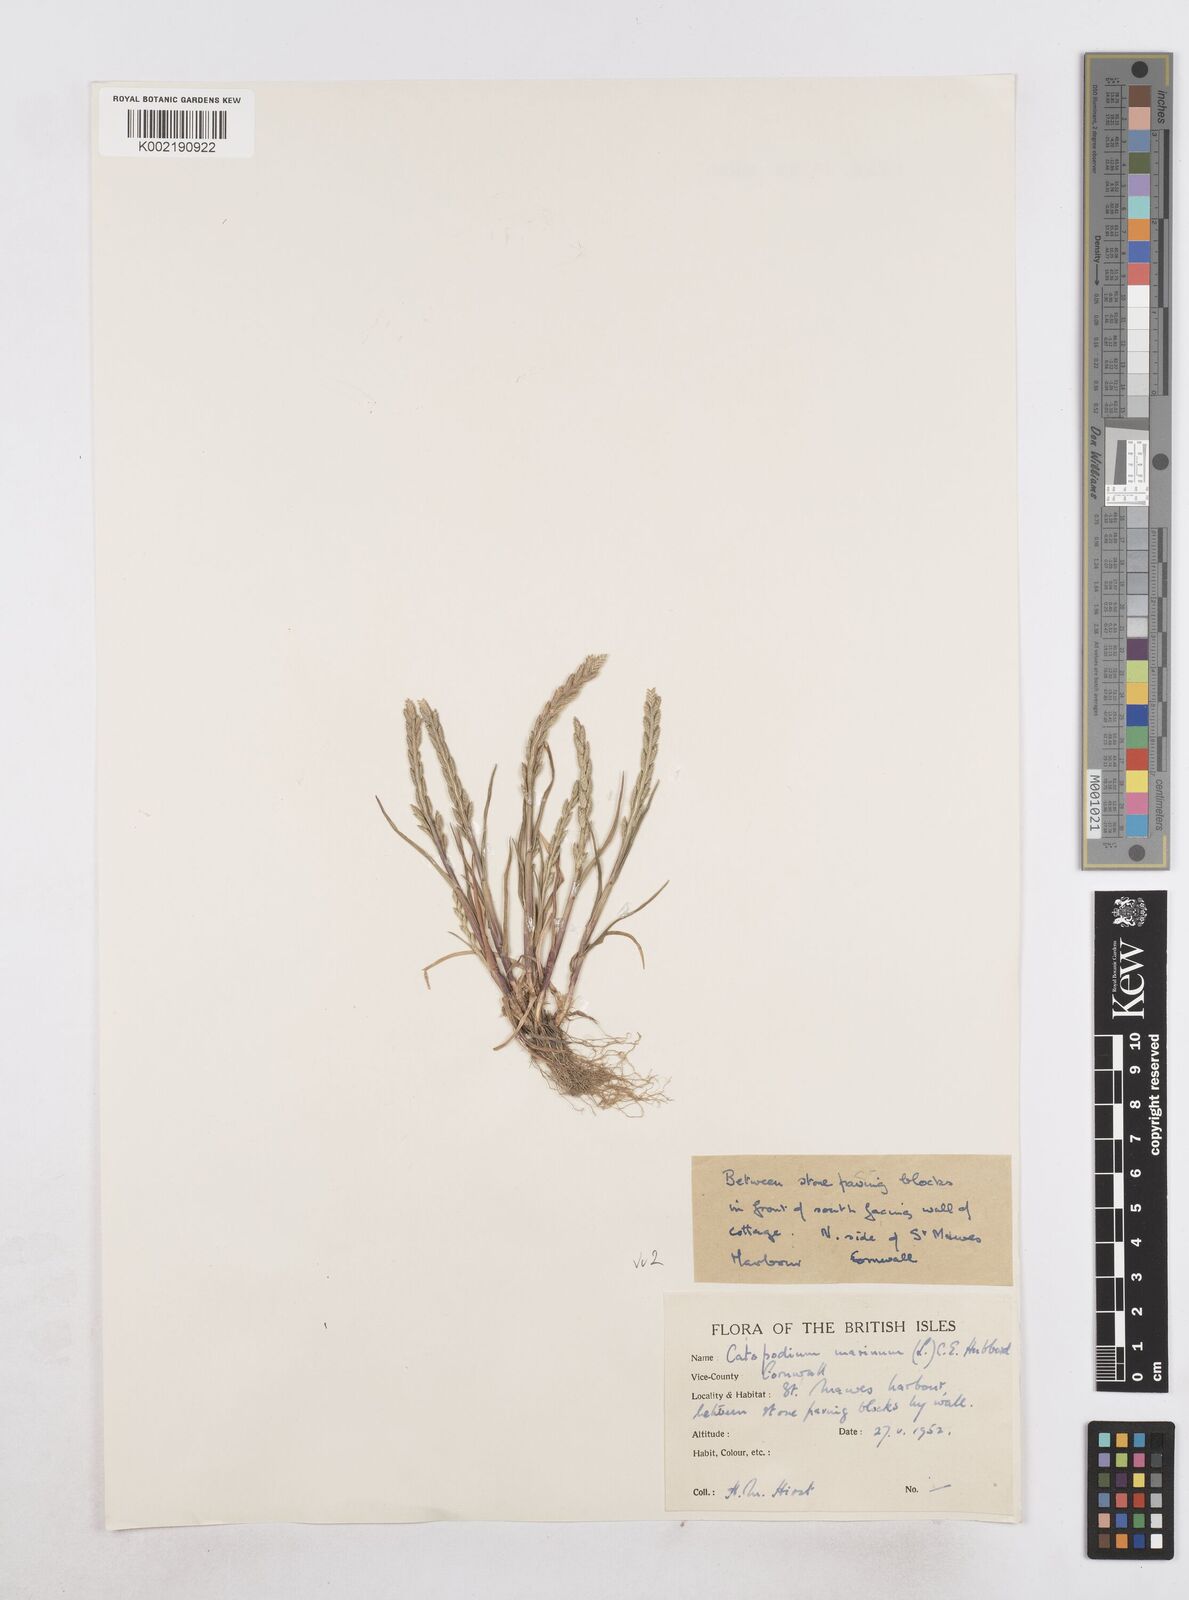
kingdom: Plantae
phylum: Tracheophyta
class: Liliopsida
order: Poales
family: Poaceae
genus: Catapodium
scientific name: Catapodium marinum
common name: Sea fern-grass
